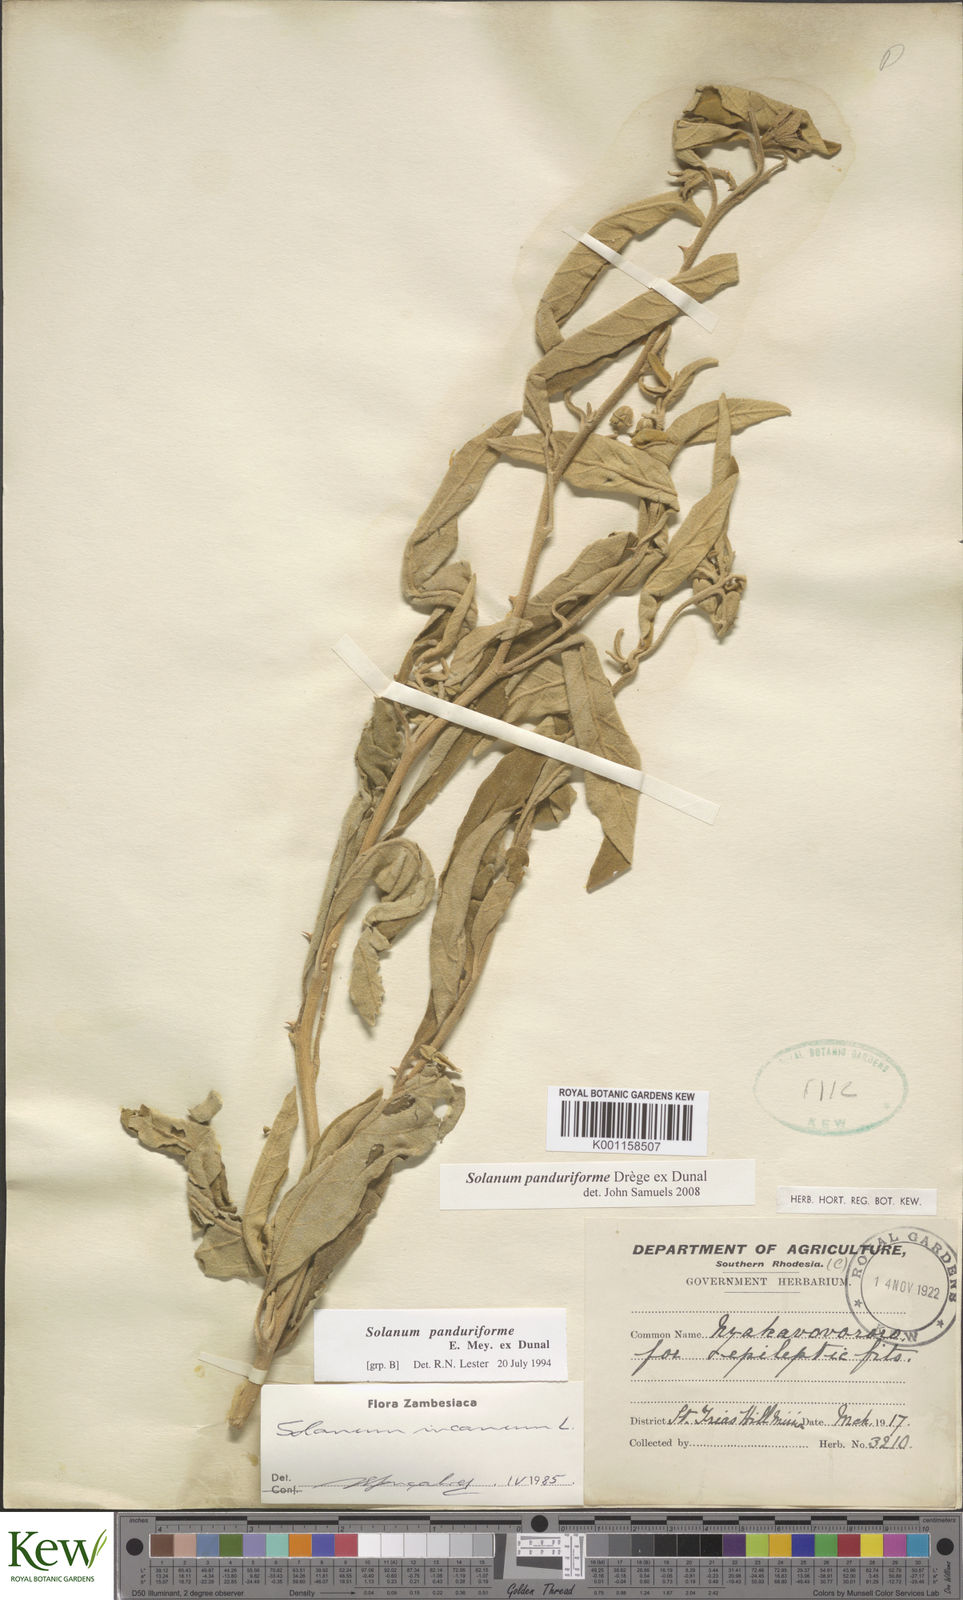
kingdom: Plantae
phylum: Tracheophyta
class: Magnoliopsida
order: Solanales
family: Solanaceae
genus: Solanum
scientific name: Solanum campylacanthum
